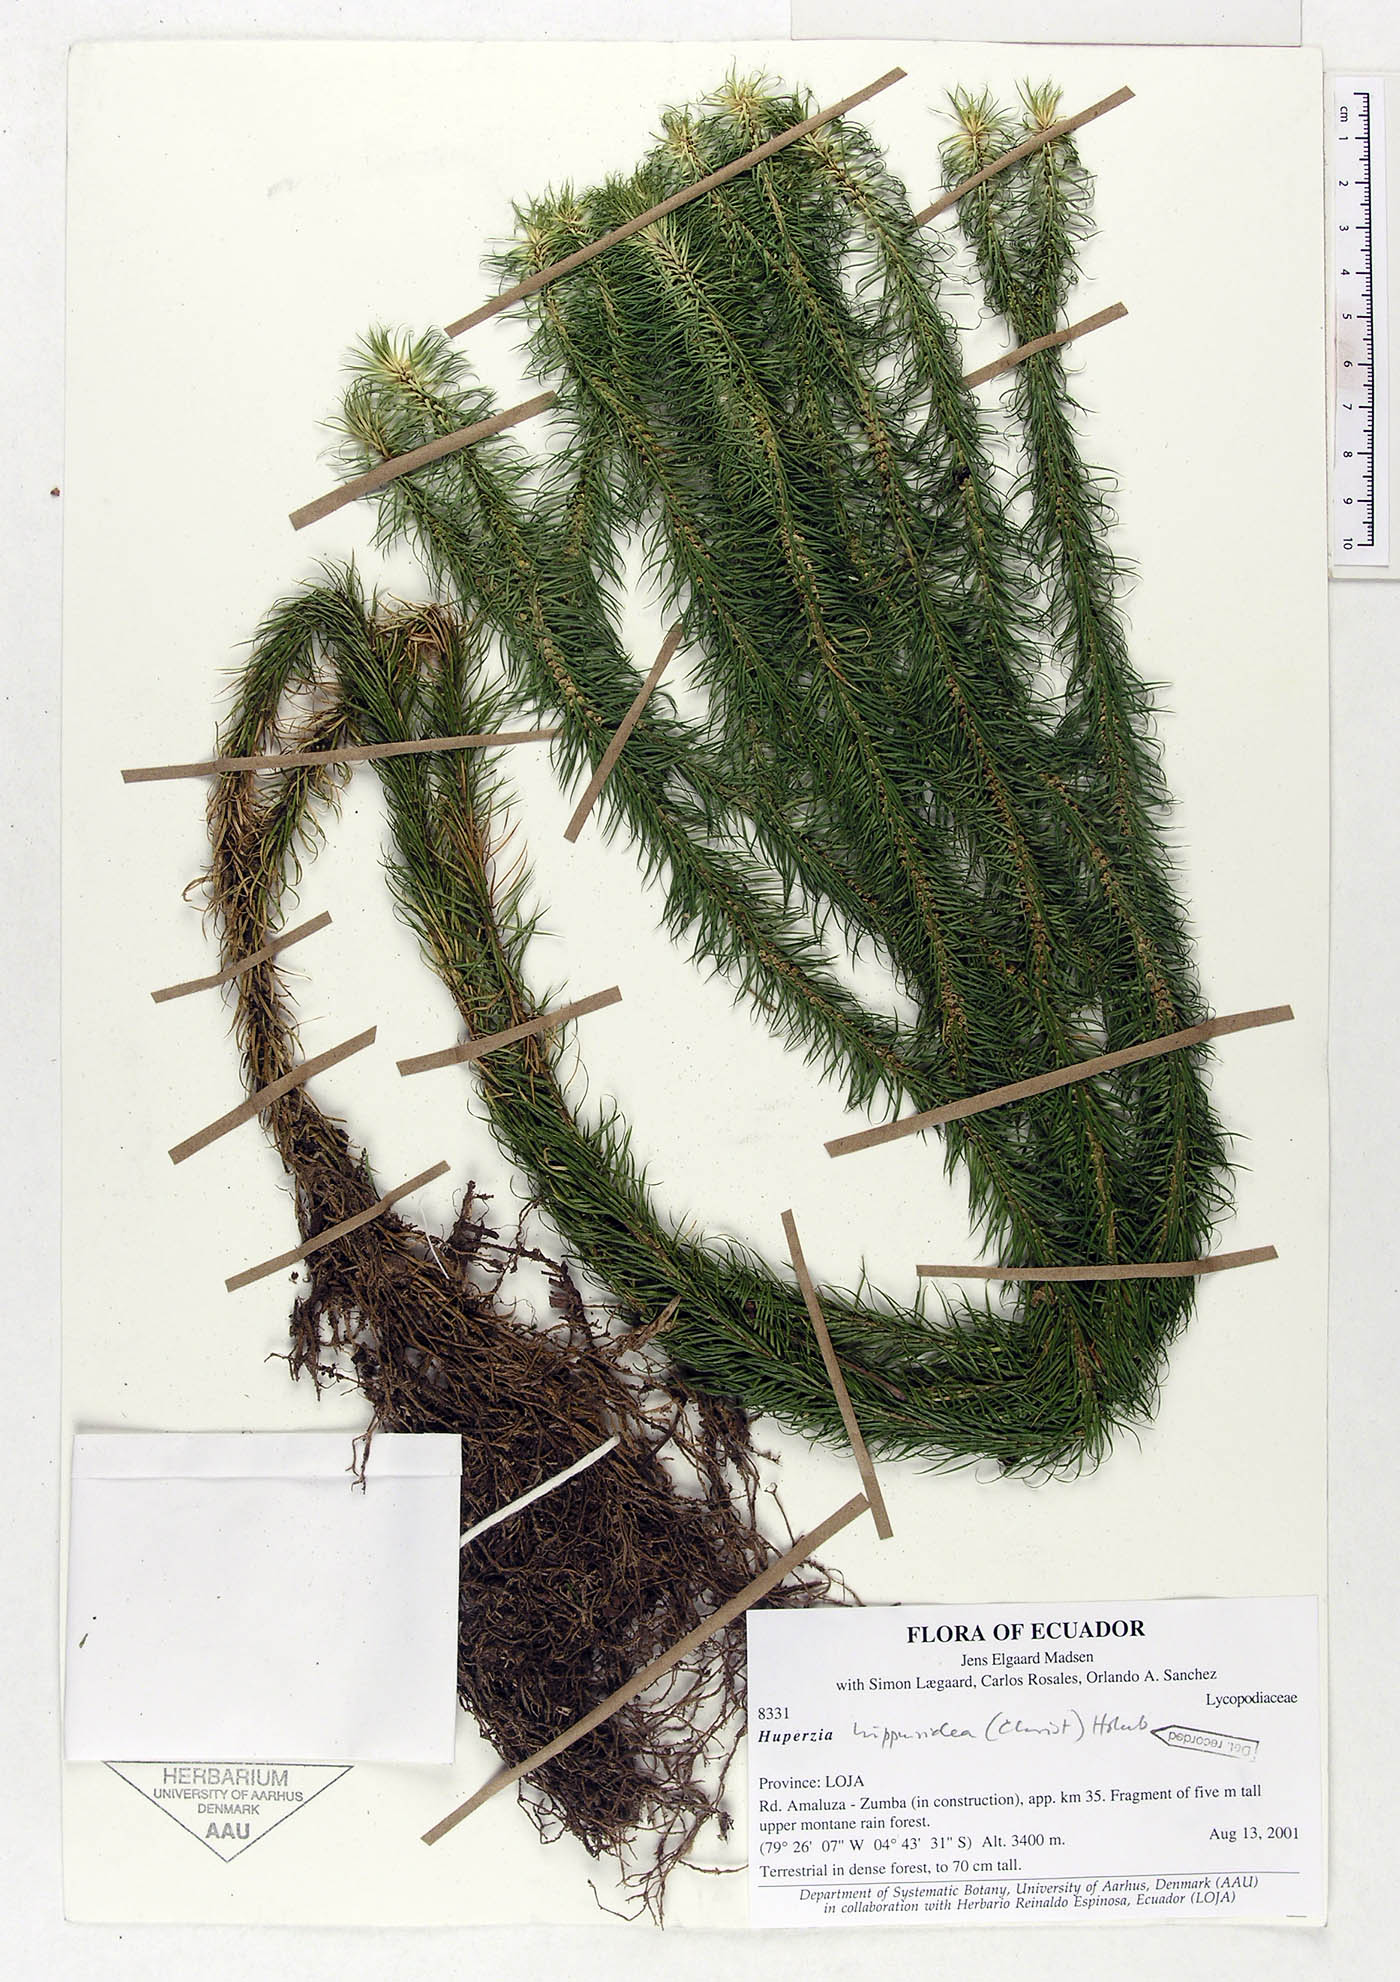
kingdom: Plantae
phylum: Tracheophyta
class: Lycopodiopsida
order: Lycopodiales
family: Lycopodiaceae
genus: Phlegmariurus
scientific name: Phlegmariurus hippurideus
